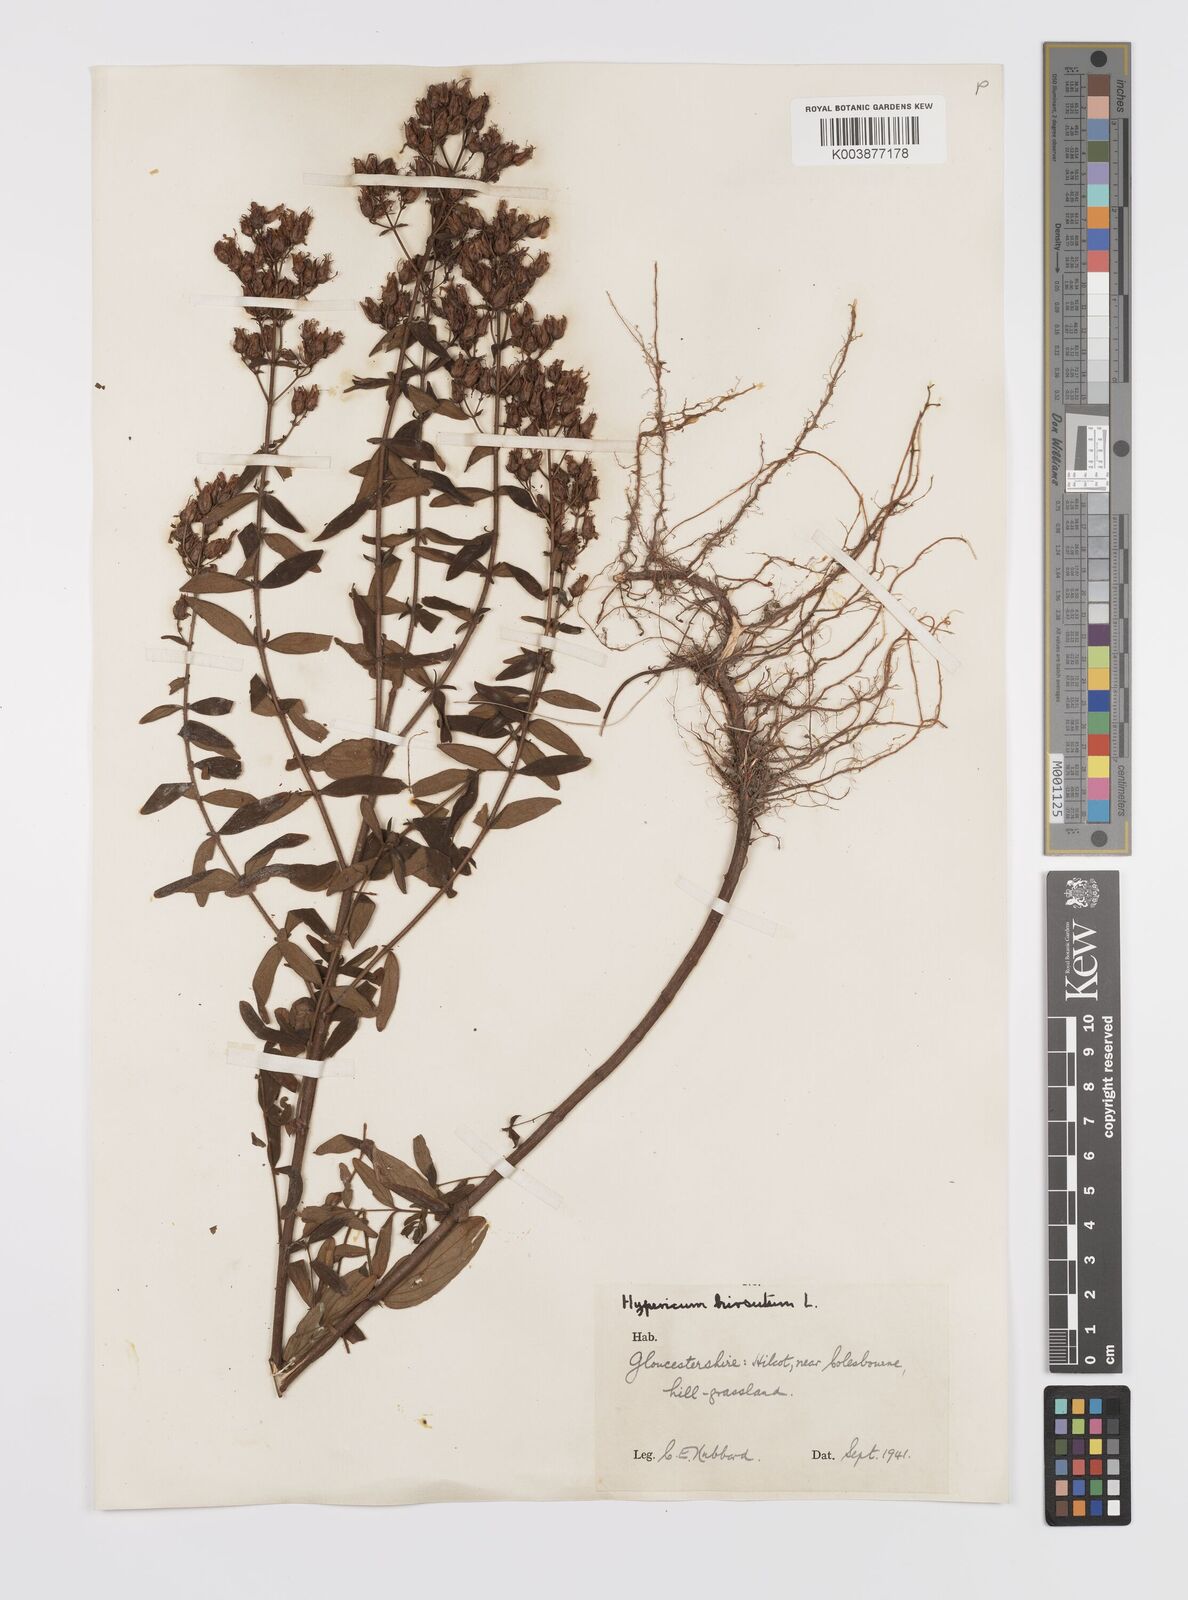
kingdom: Plantae
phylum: Tracheophyta
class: Magnoliopsida
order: Malpighiales
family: Hypericaceae
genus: Hypericum
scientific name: Hypericum hirsutum
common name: Hairy st. john's-wort
